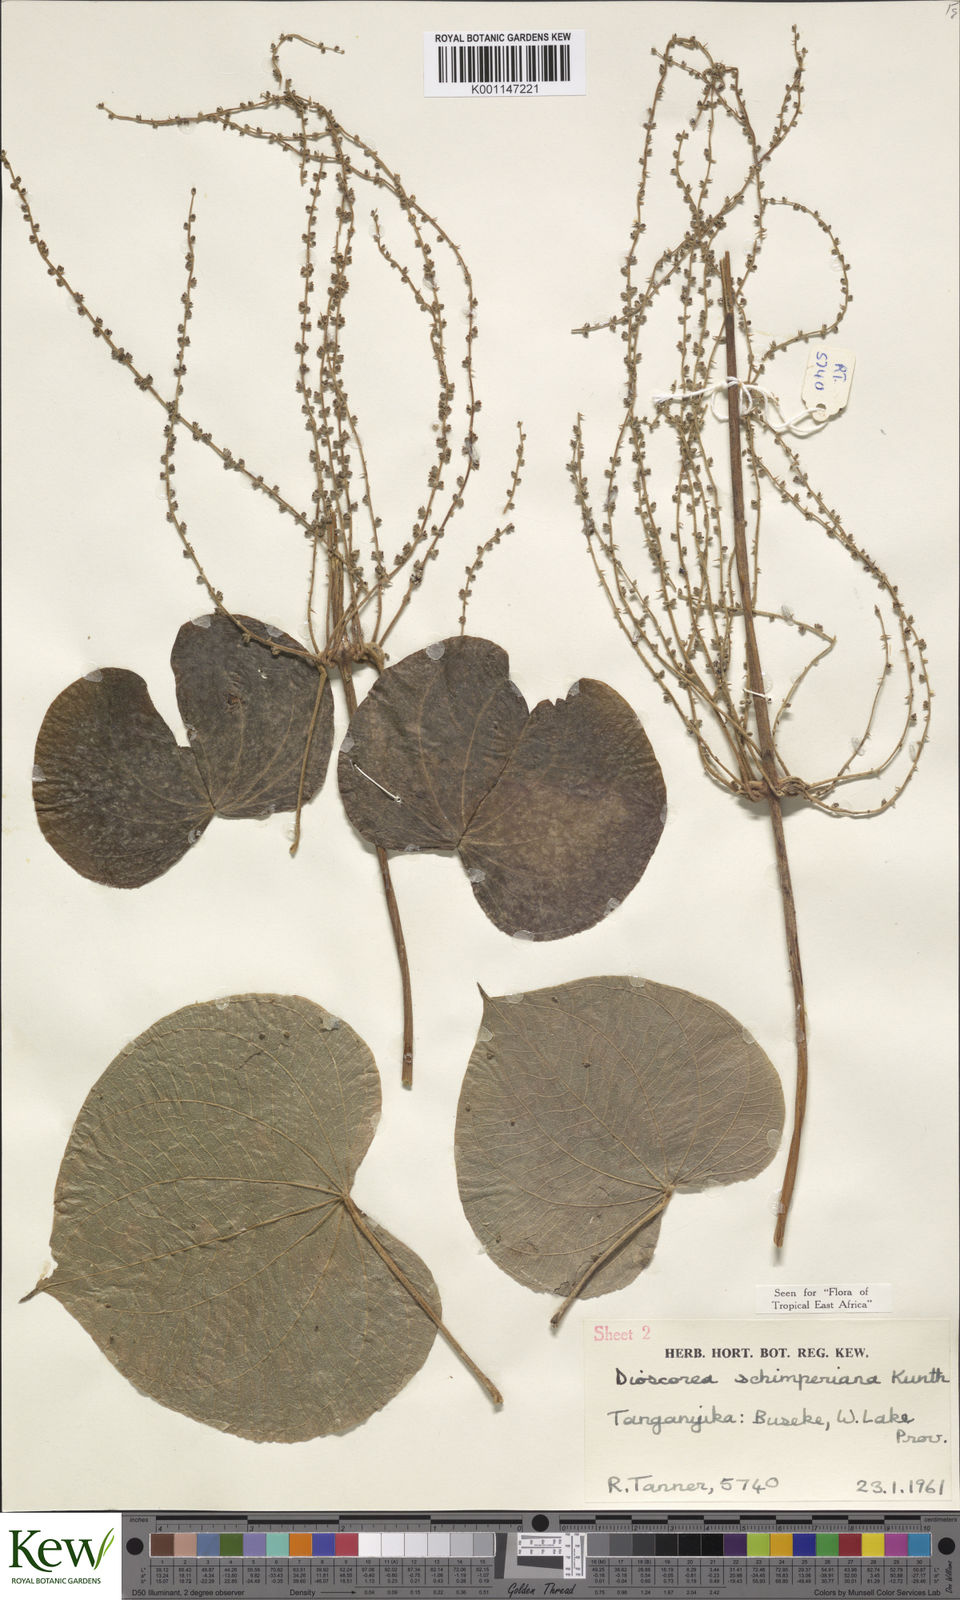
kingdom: Plantae
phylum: Tracheophyta
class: Liliopsida
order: Dioscoreales
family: Dioscoreaceae
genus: Dioscorea
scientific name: Dioscorea schimperiana
